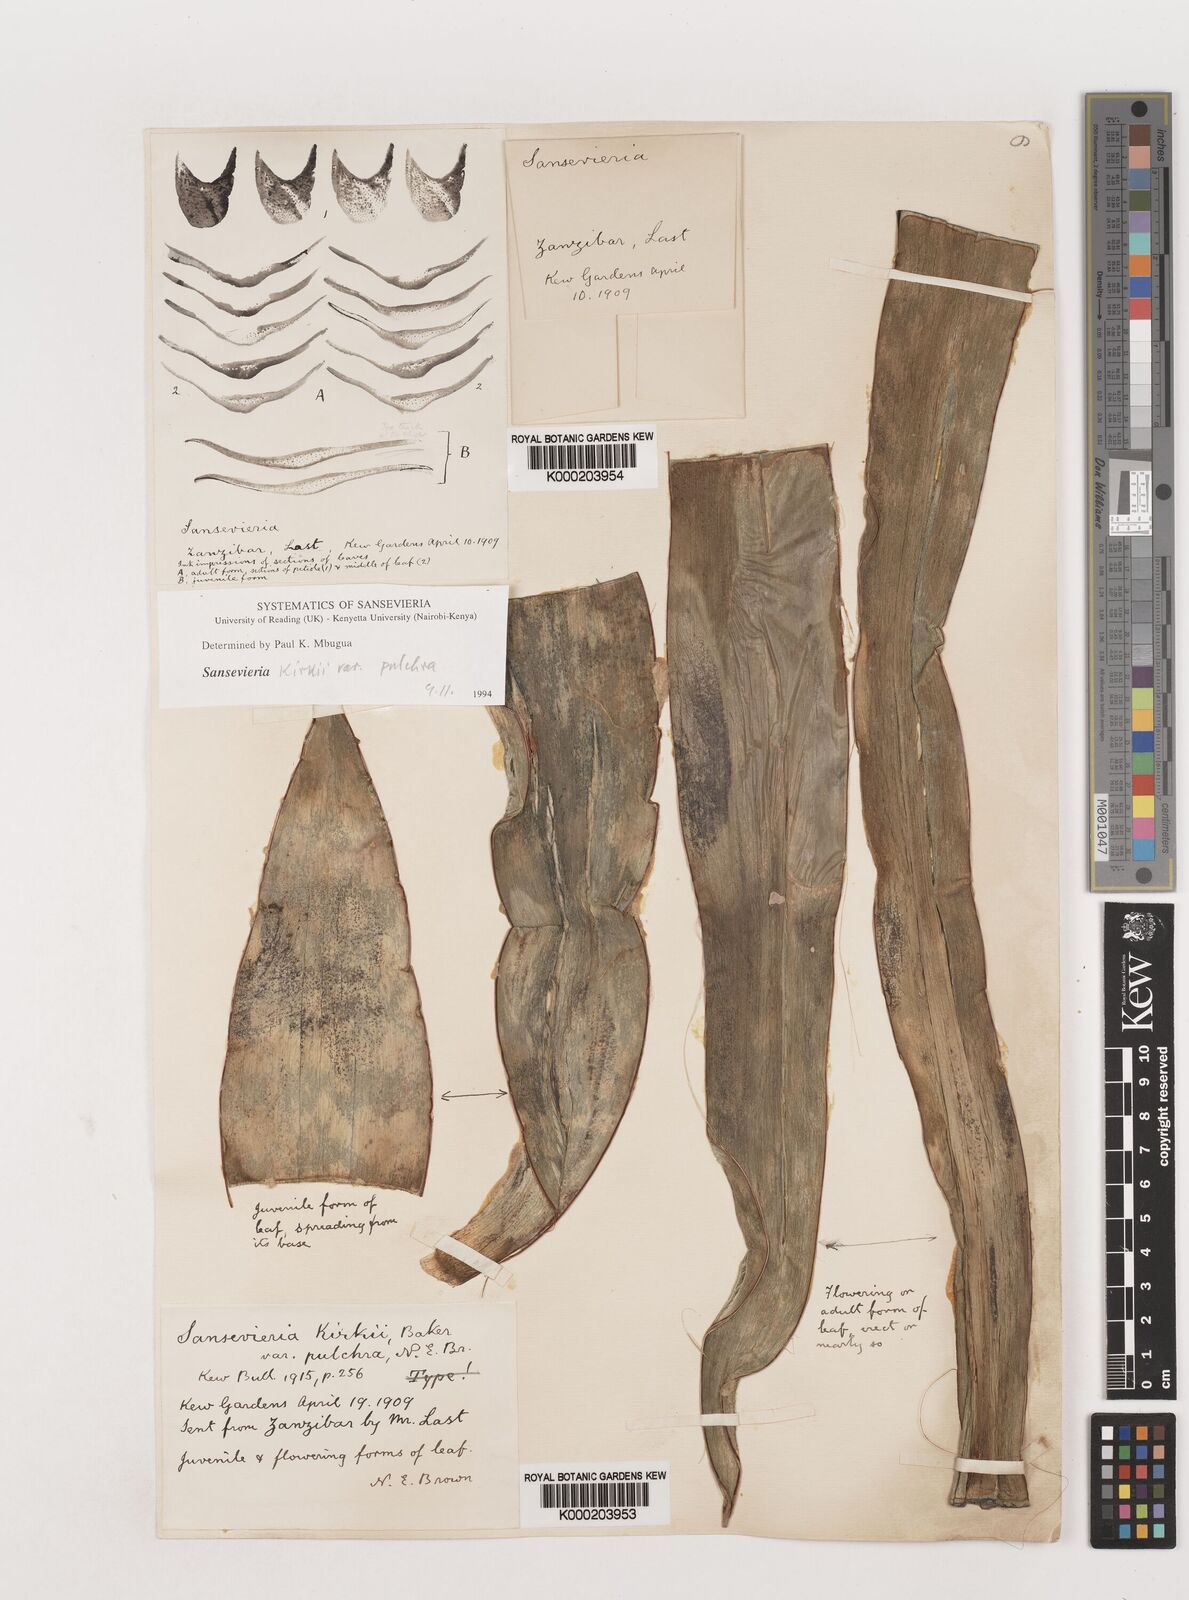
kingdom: Plantae
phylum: Tracheophyta
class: Liliopsida
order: Asparagales
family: Asparagaceae
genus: Dracaena
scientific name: Dracaena pethera
